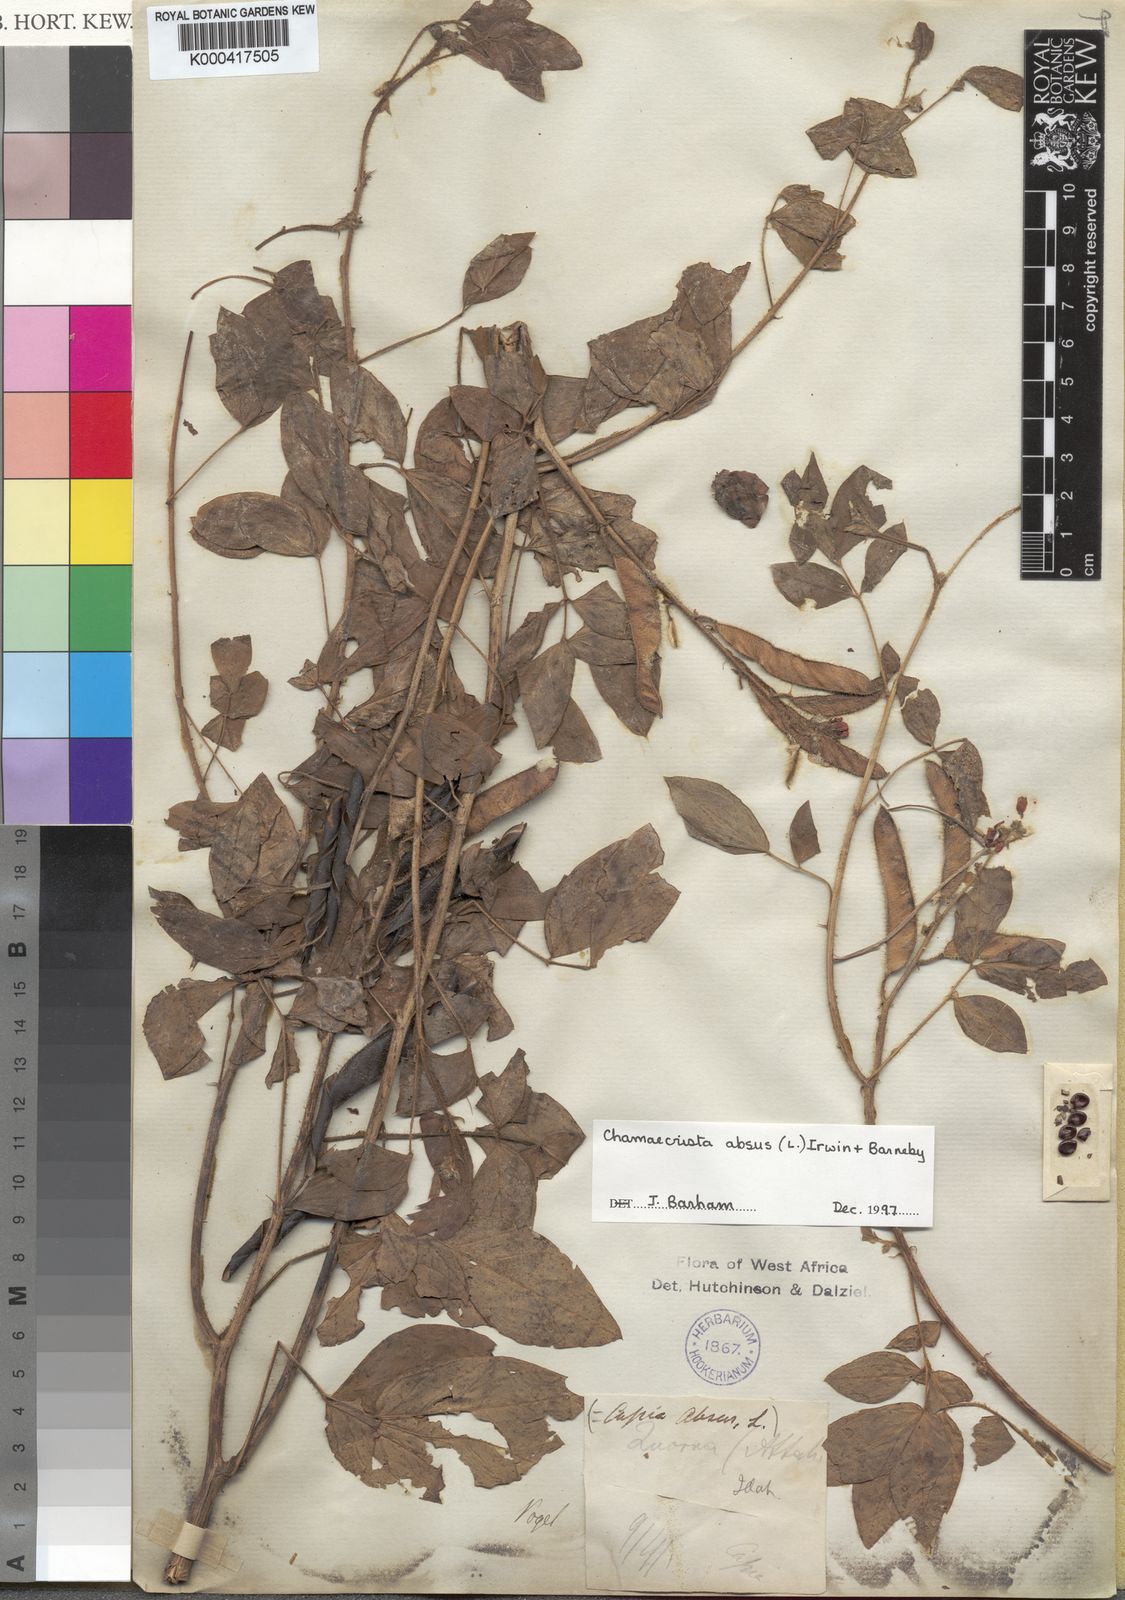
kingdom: Plantae
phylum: Tracheophyta
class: Magnoliopsida
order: Fabales
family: Fabaceae
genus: Chamaecrista
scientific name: Chamaecrista absus
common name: Tropical sensitive pea
